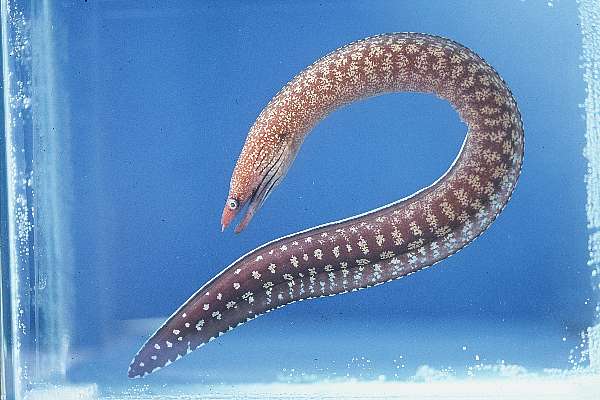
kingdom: Animalia
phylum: Chordata
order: Anguilliformes
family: Muraenidae
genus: Gymnothorax
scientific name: Gymnothorax megaspilus
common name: Oman moray
